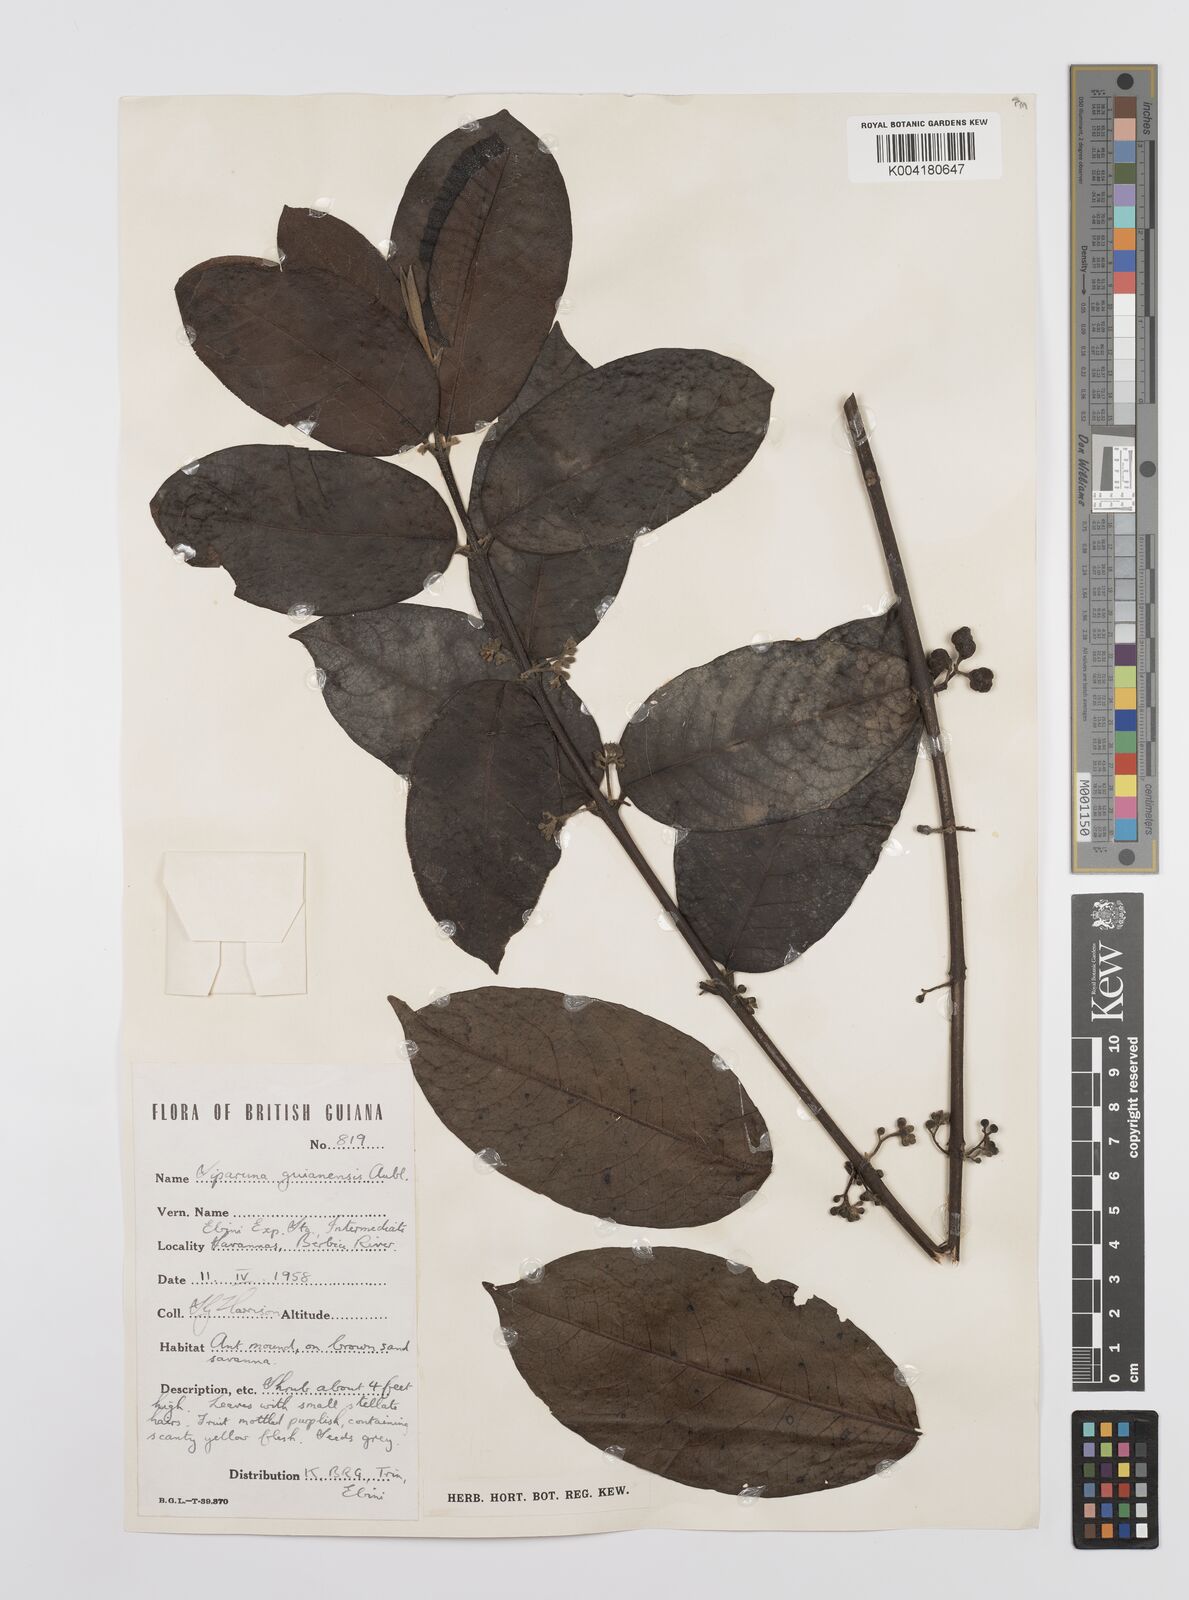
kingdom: Plantae
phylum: Tracheophyta
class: Magnoliopsida
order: Laurales
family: Siparunaceae
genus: Siparuna
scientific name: Siparuna guianensis
